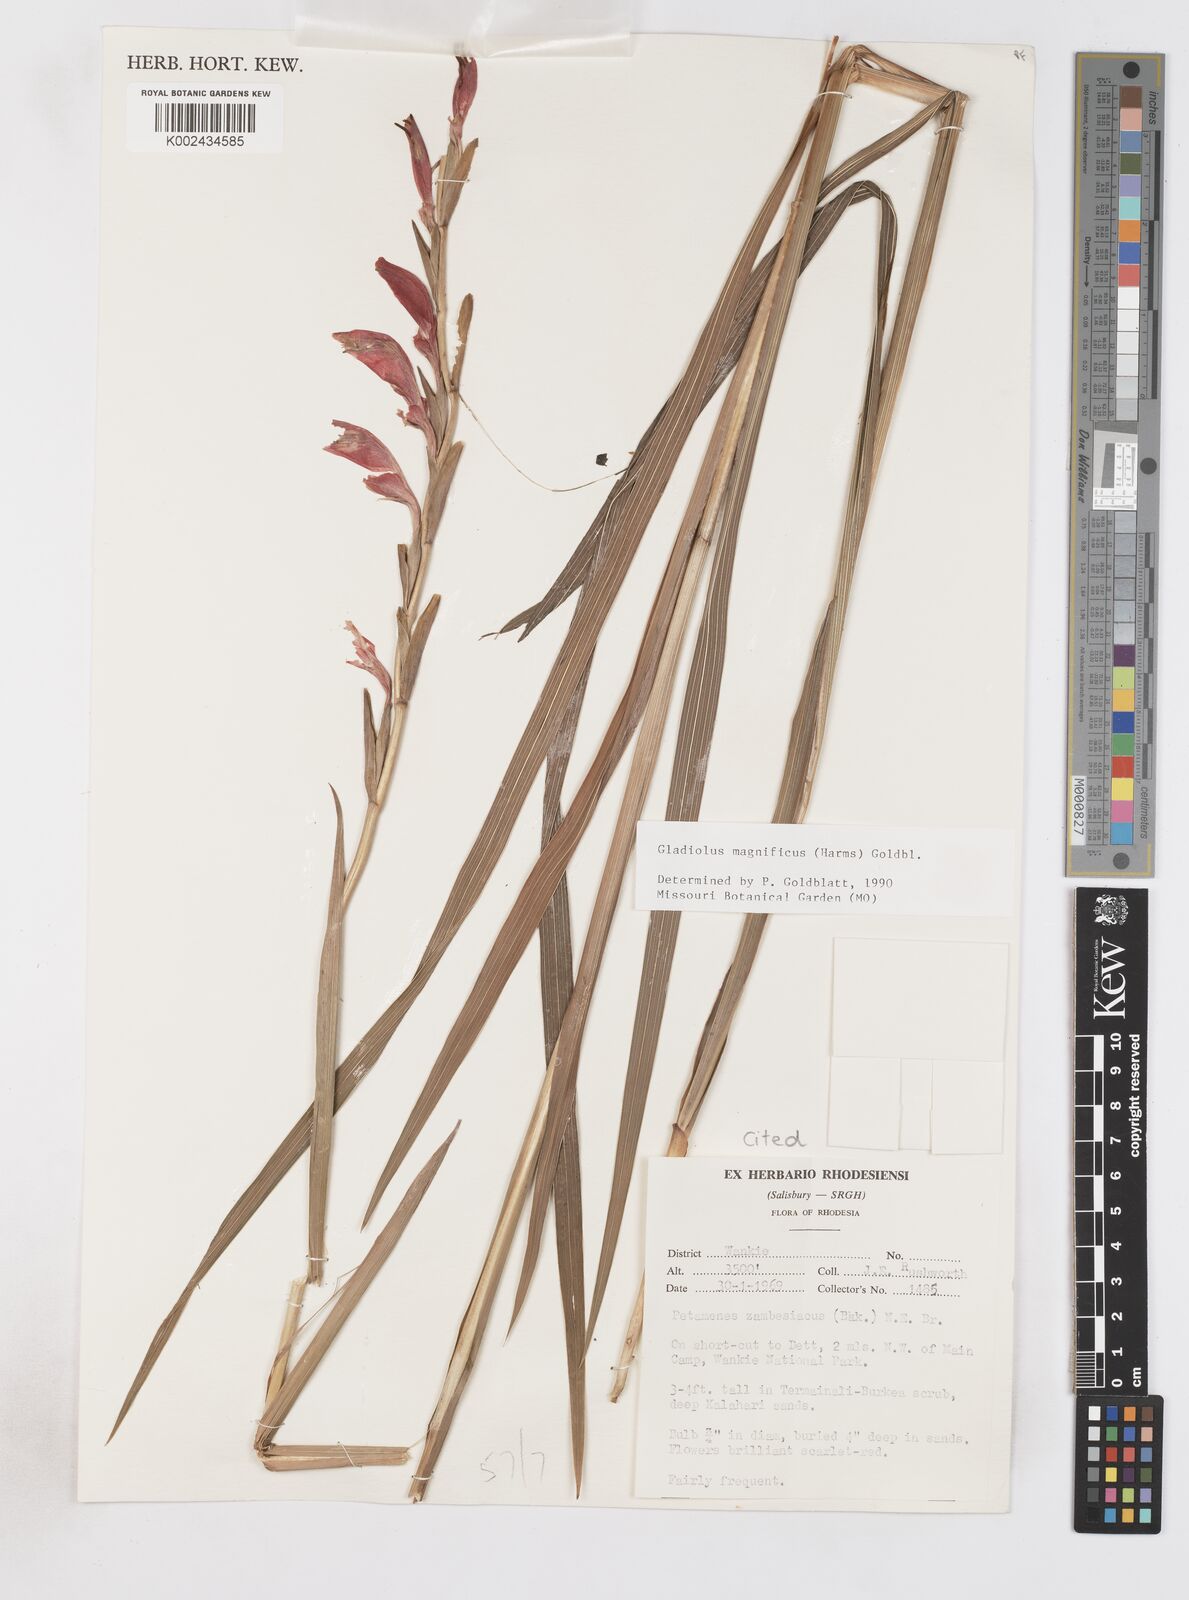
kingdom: Plantae
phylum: Tracheophyta
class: Liliopsida
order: Asparagales
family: Iridaceae
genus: Gladiolus
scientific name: Gladiolus magnificus
